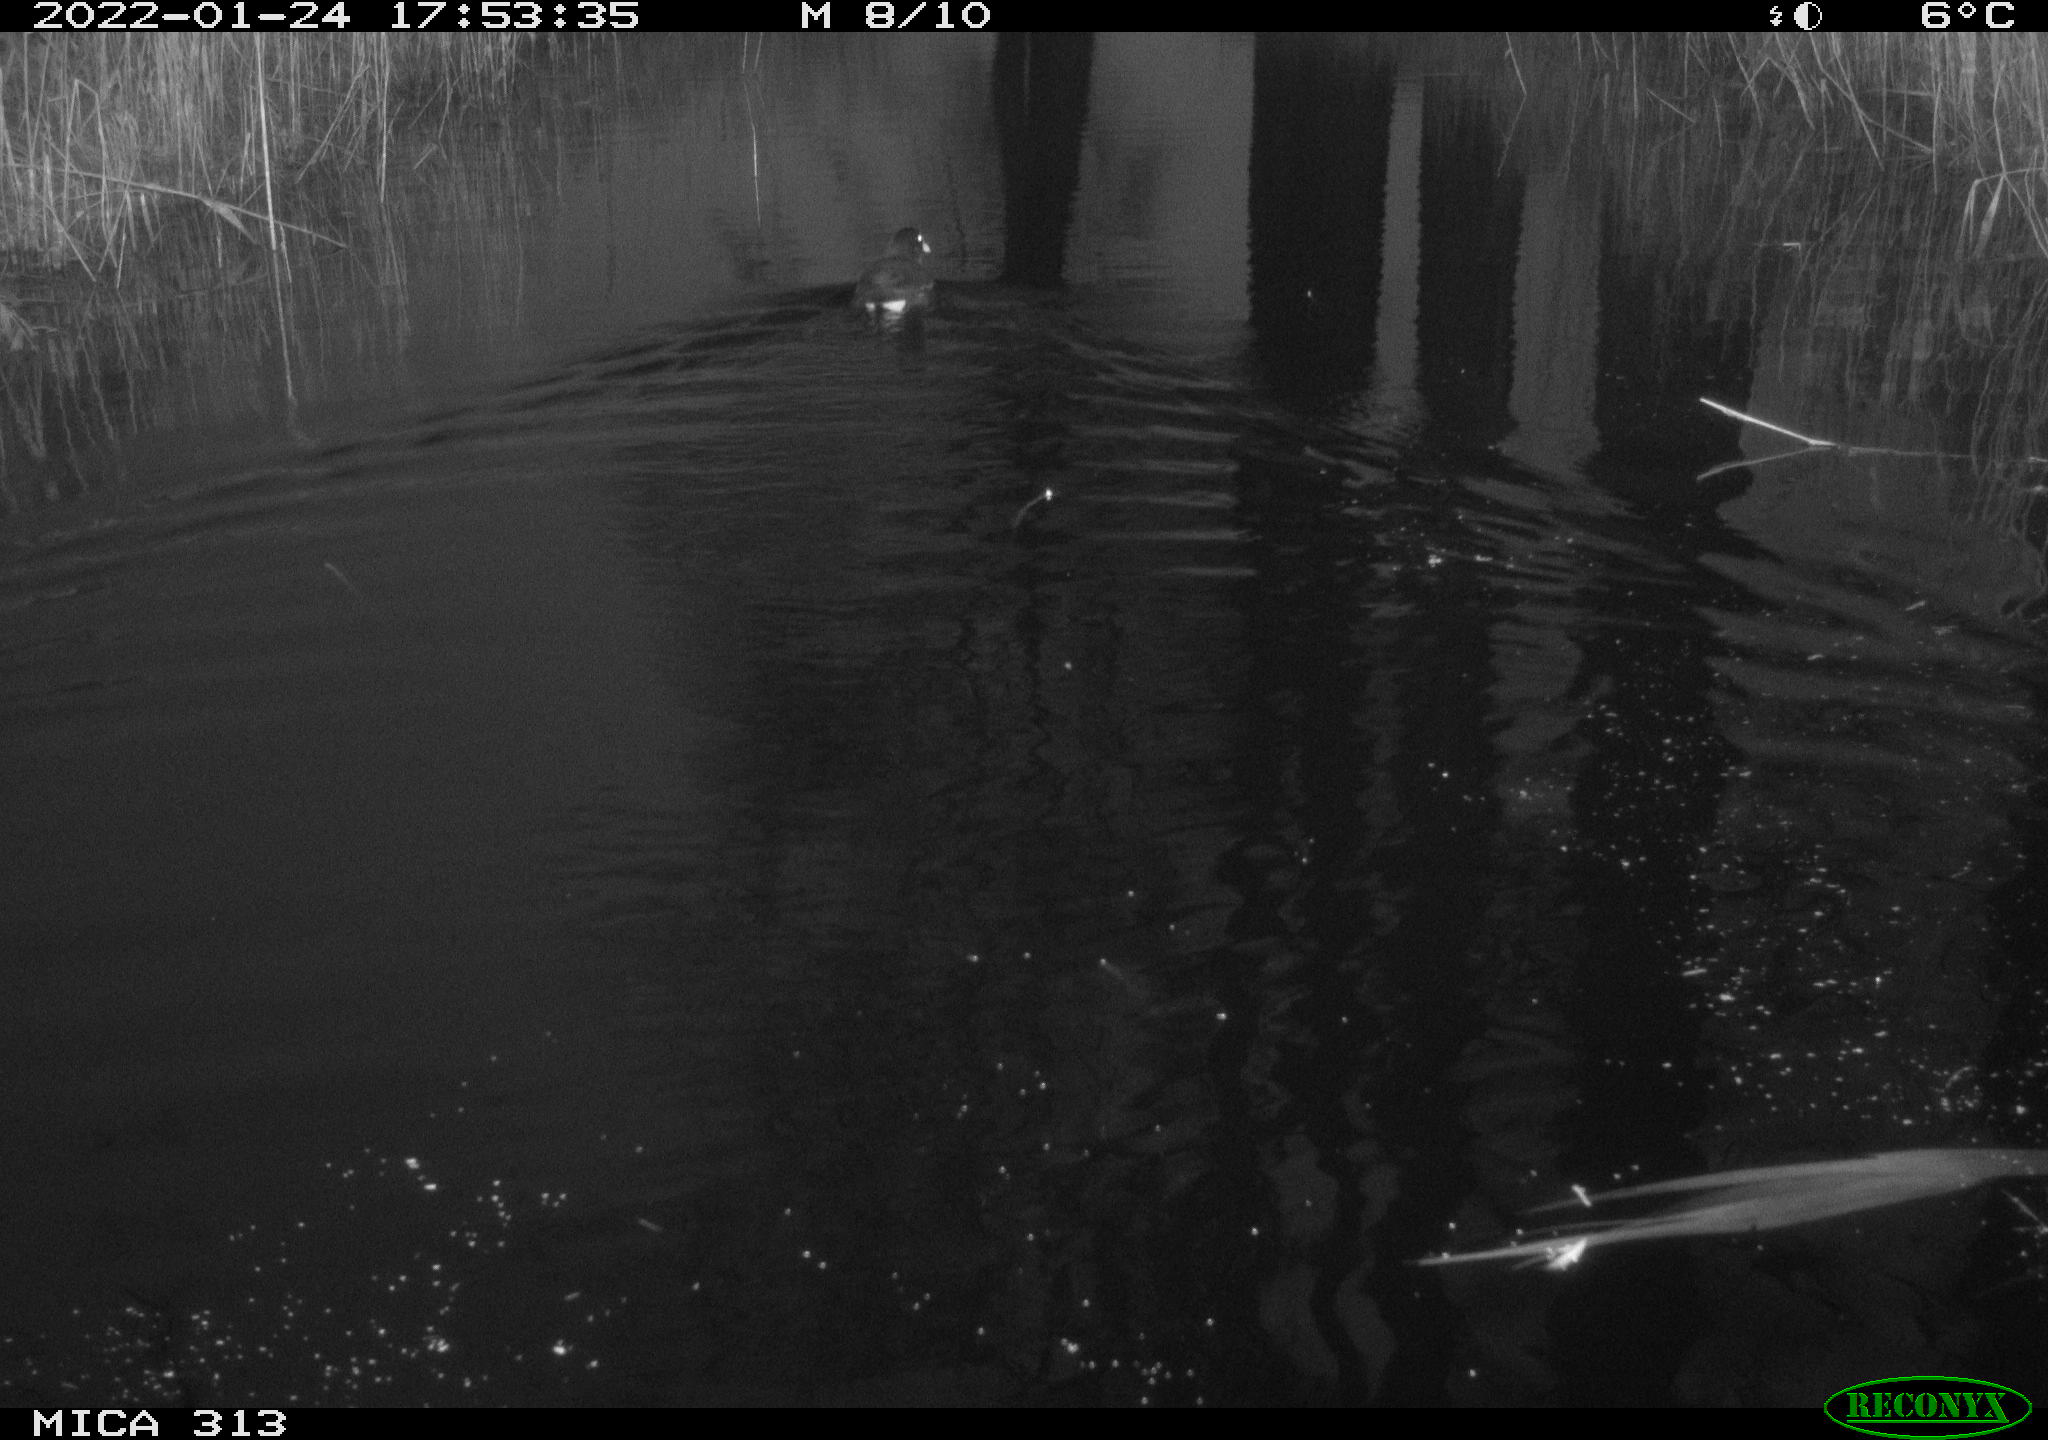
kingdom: Animalia
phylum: Chordata
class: Aves
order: Anseriformes
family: Anatidae
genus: Anas
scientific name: Anas
